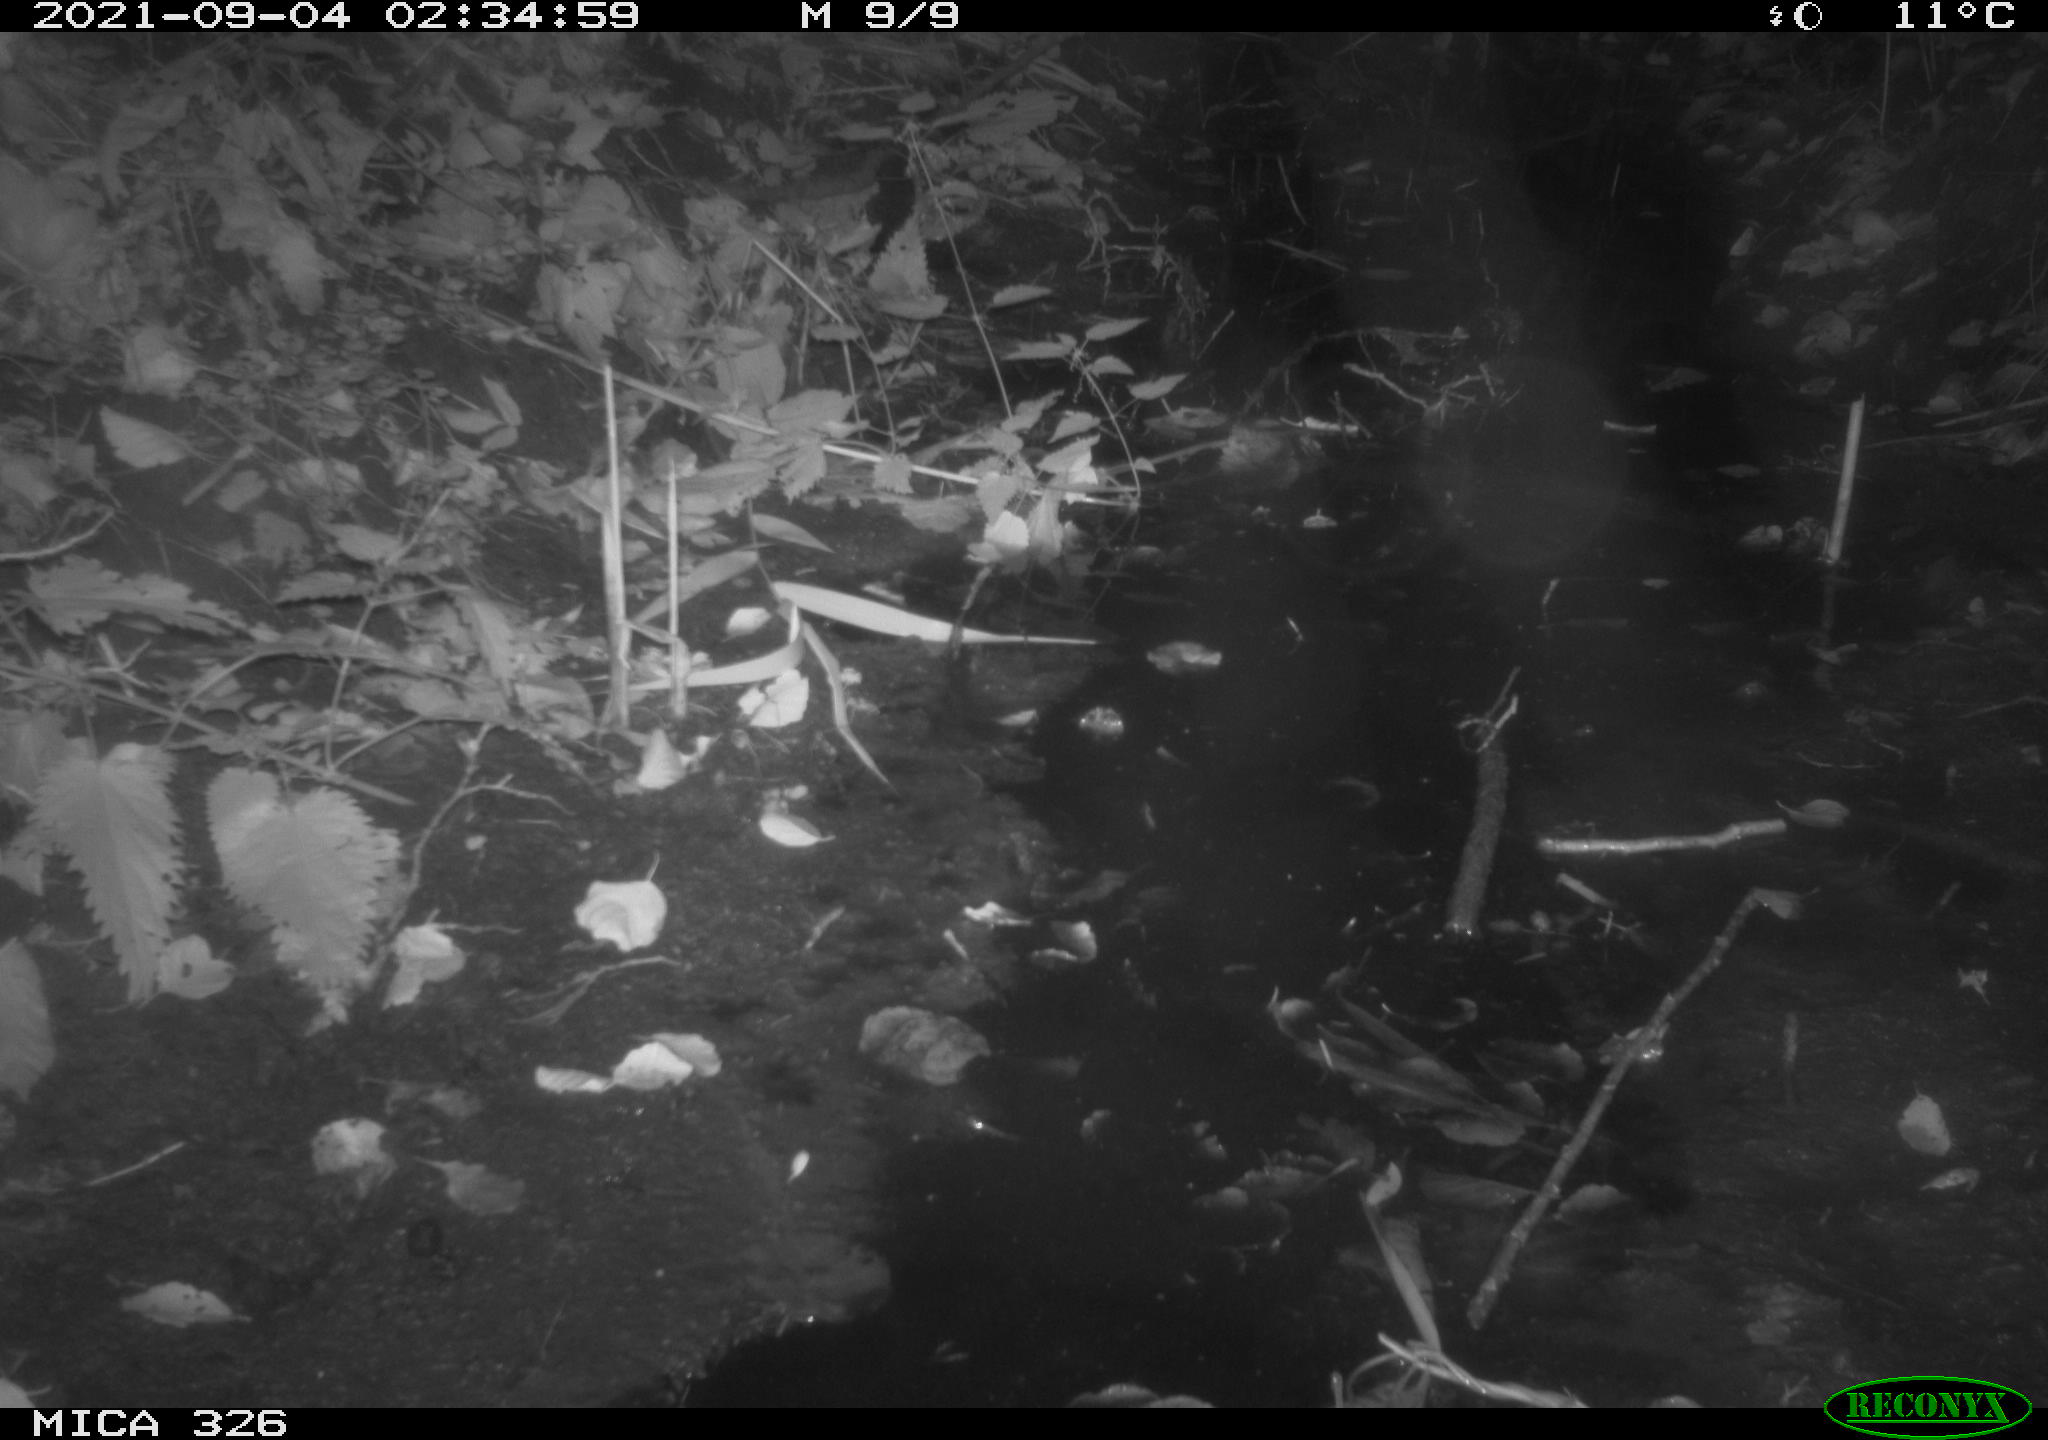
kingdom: Animalia
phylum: Chordata
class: Mammalia
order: Rodentia
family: Cricetidae
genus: Ondatra
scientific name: Ondatra zibethicus
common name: Muskrat
